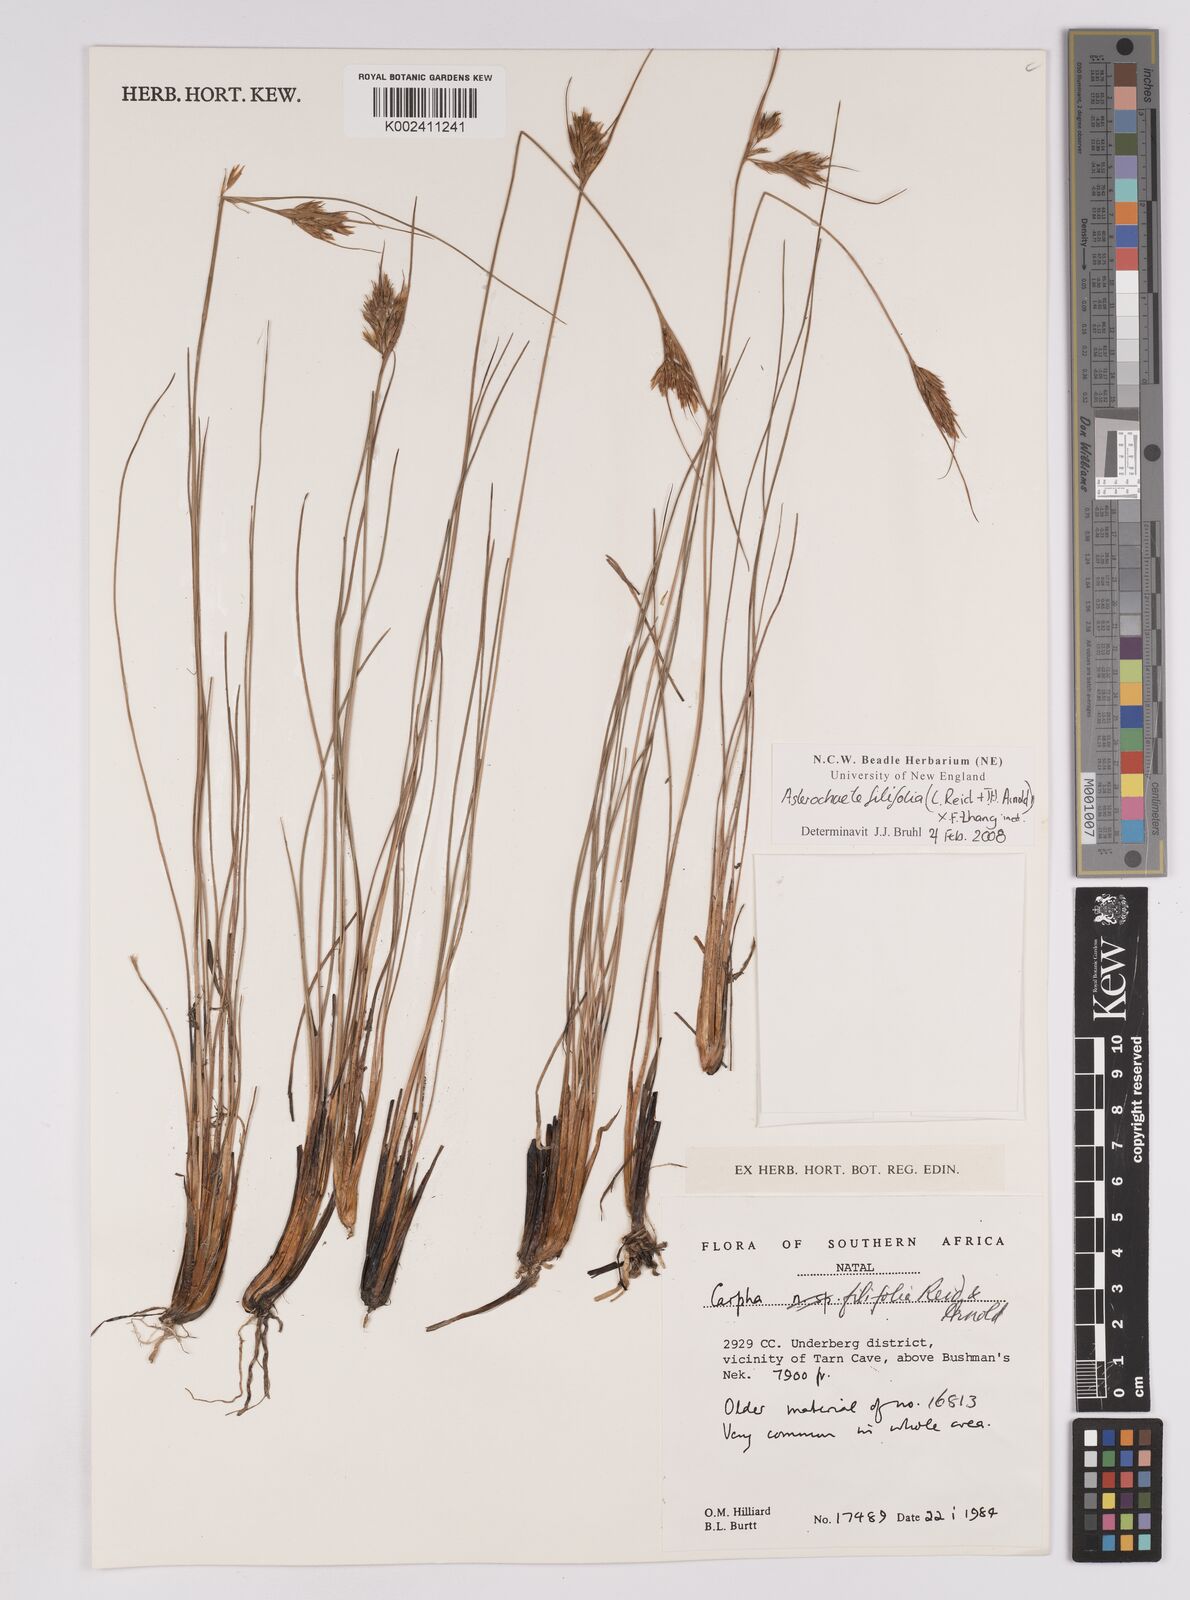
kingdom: Plantae
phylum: Tracheophyta
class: Liliopsida
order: Poales
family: Cyperaceae
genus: Carpha
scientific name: Carpha filifolia
